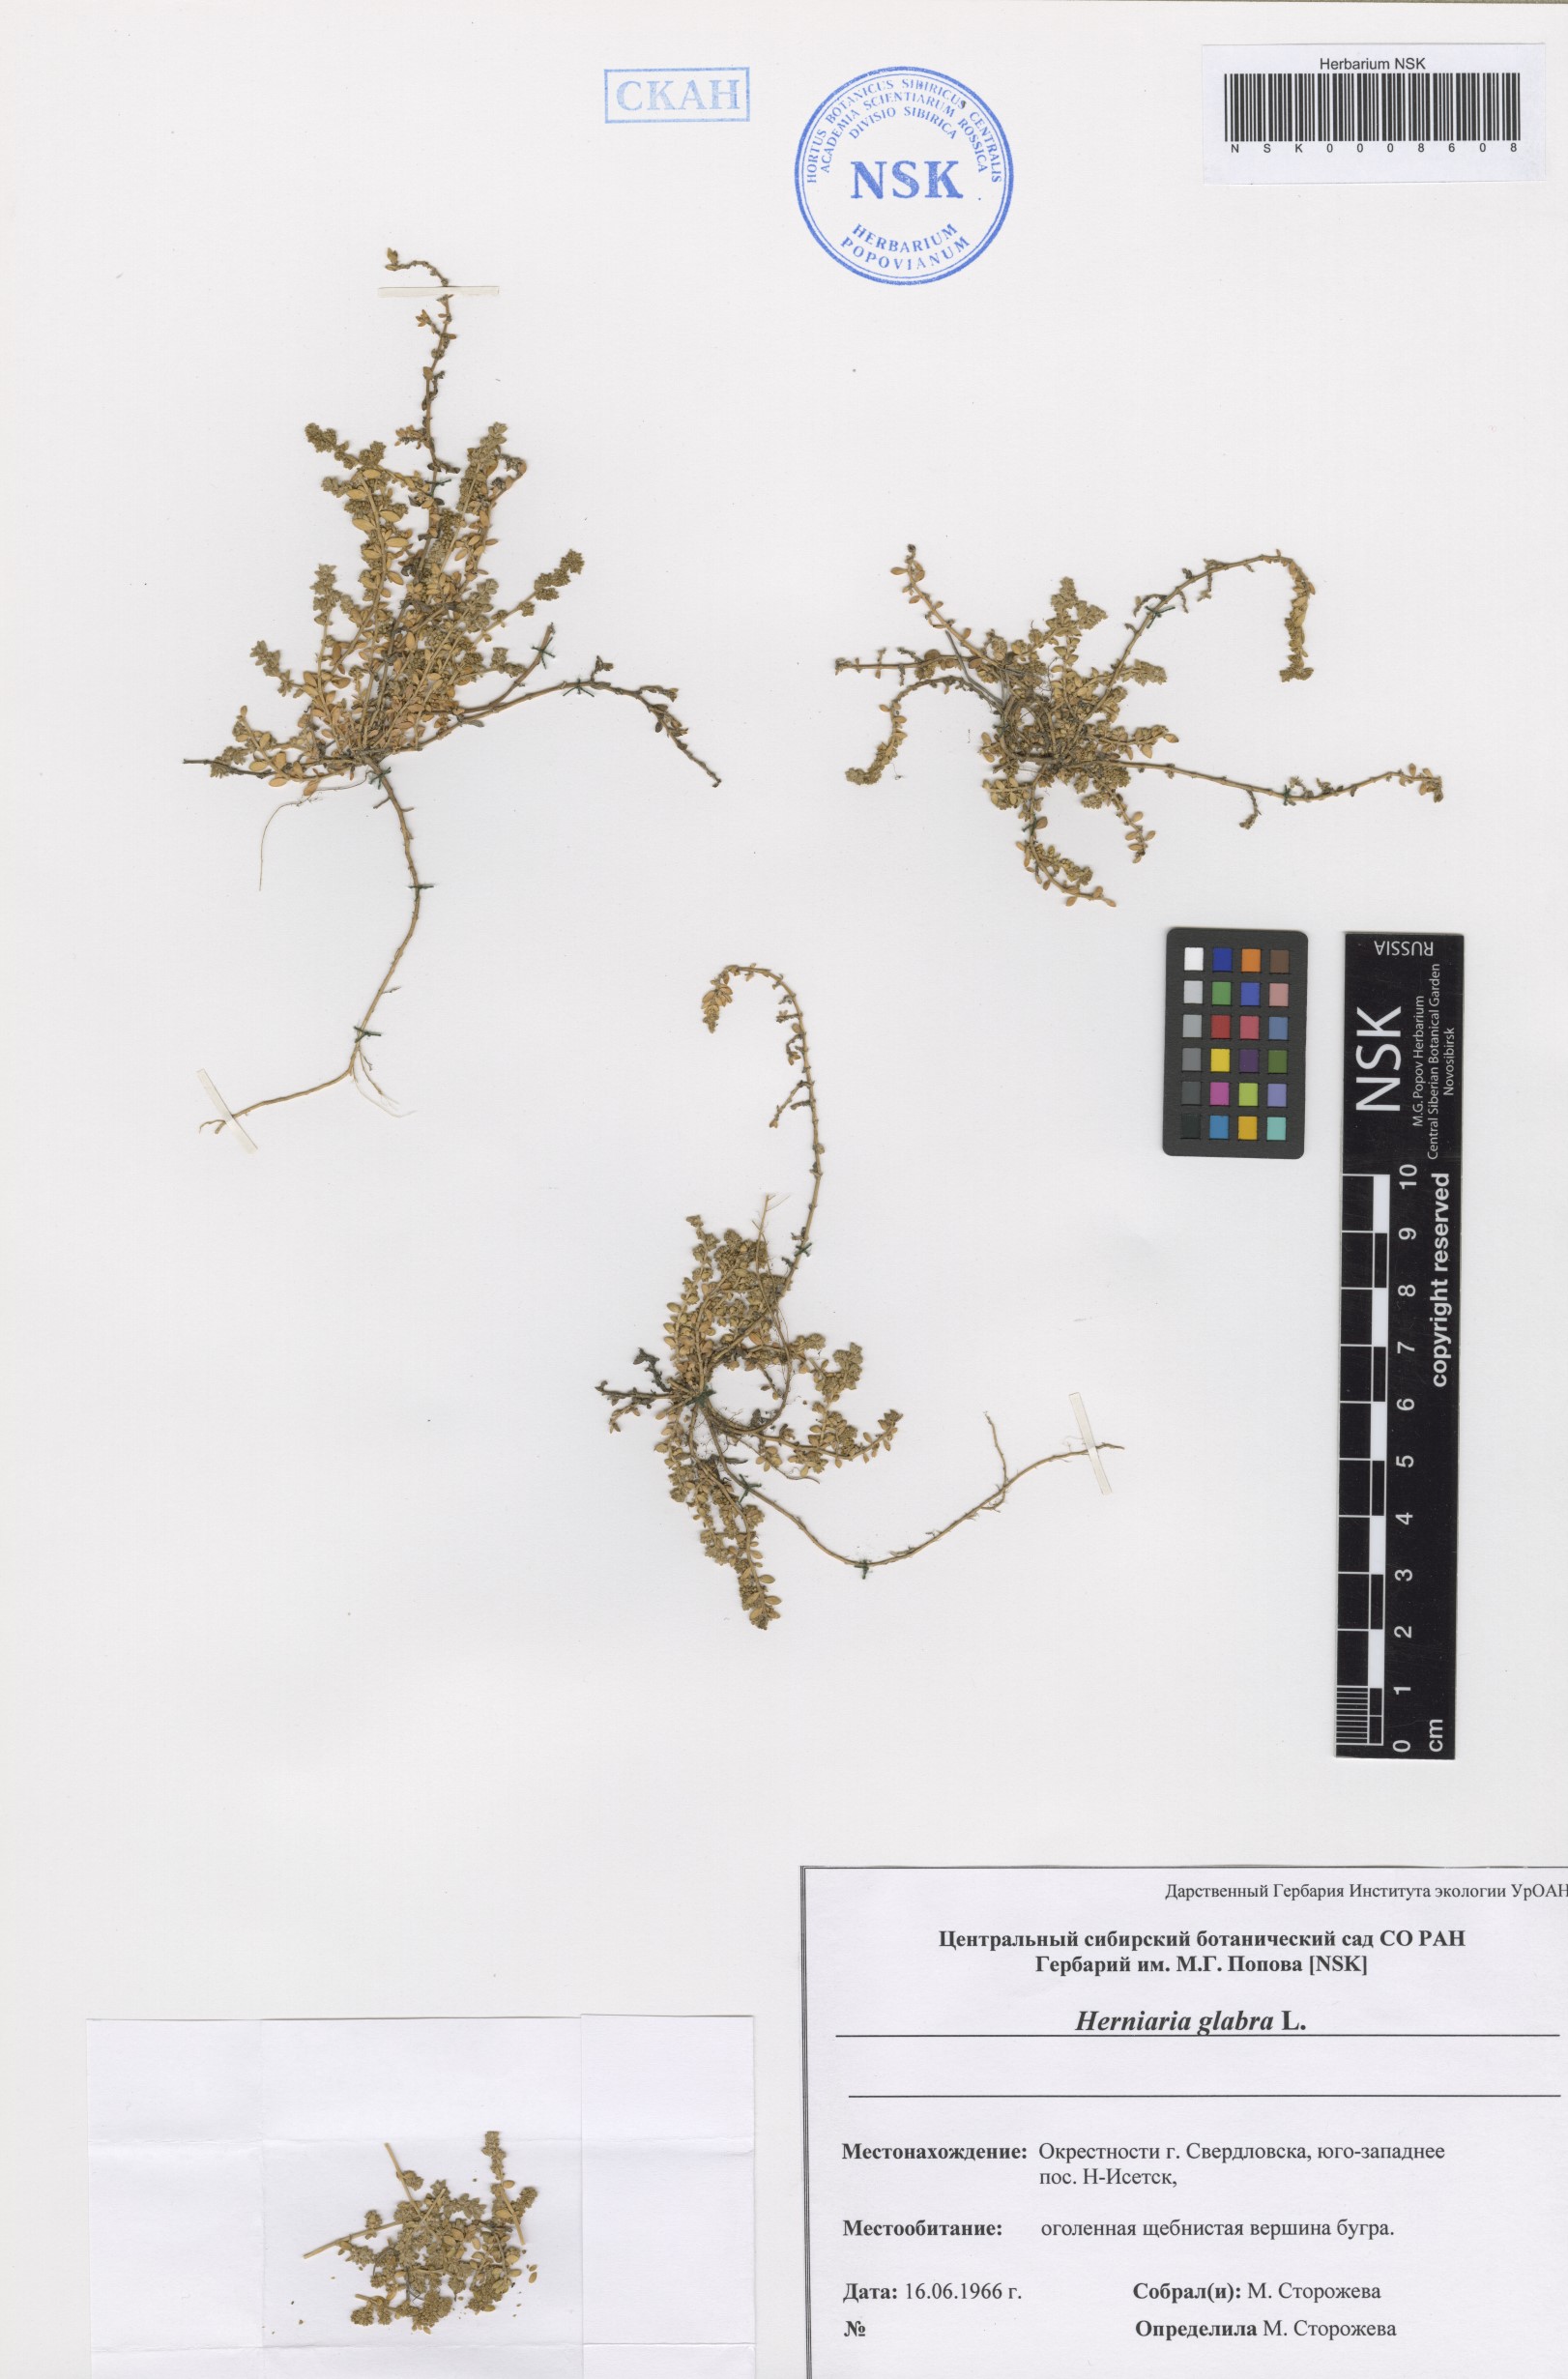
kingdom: Plantae
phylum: Tracheophyta
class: Magnoliopsida
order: Caryophyllales
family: Caryophyllaceae
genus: Herniaria
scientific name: Herniaria glabra
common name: Smooth rupturewort
